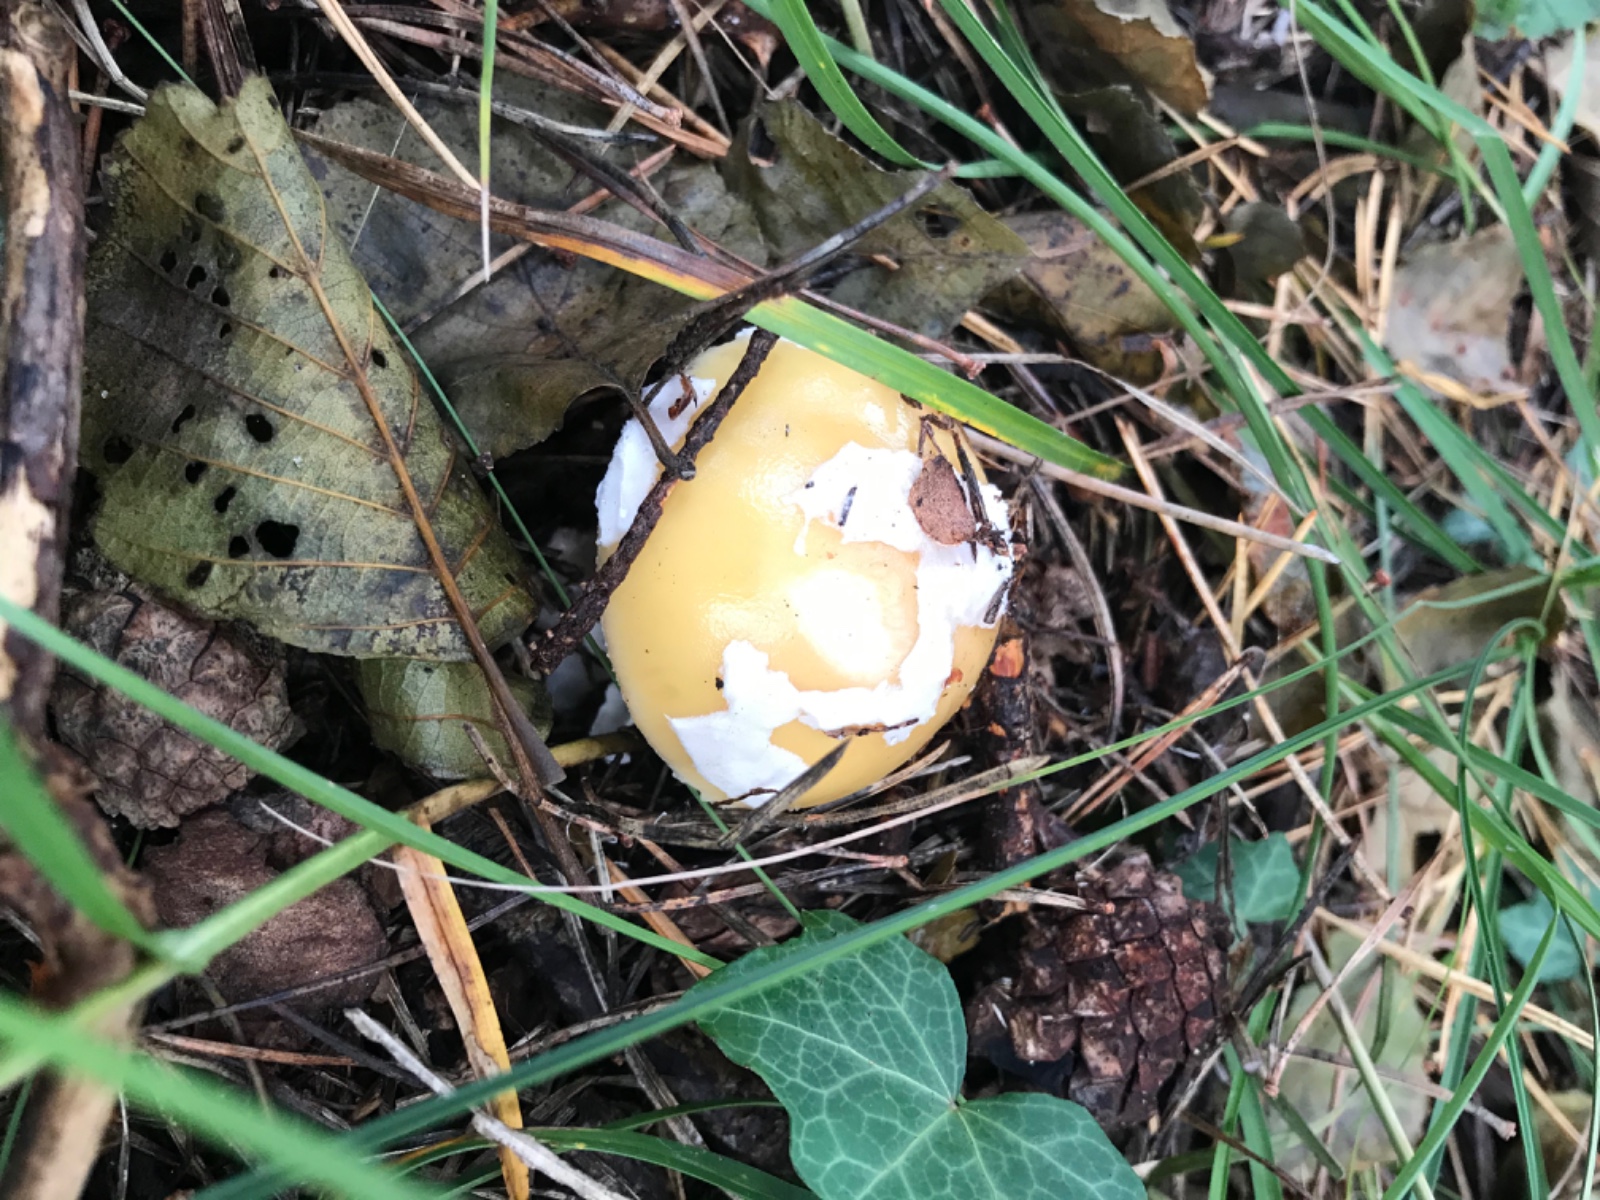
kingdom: Fungi
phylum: Basidiomycota
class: Agaricomycetes
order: Agaricales
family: Amanitaceae
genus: Amanita
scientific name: Amanita gemmata
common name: okkergul fluesvamp
